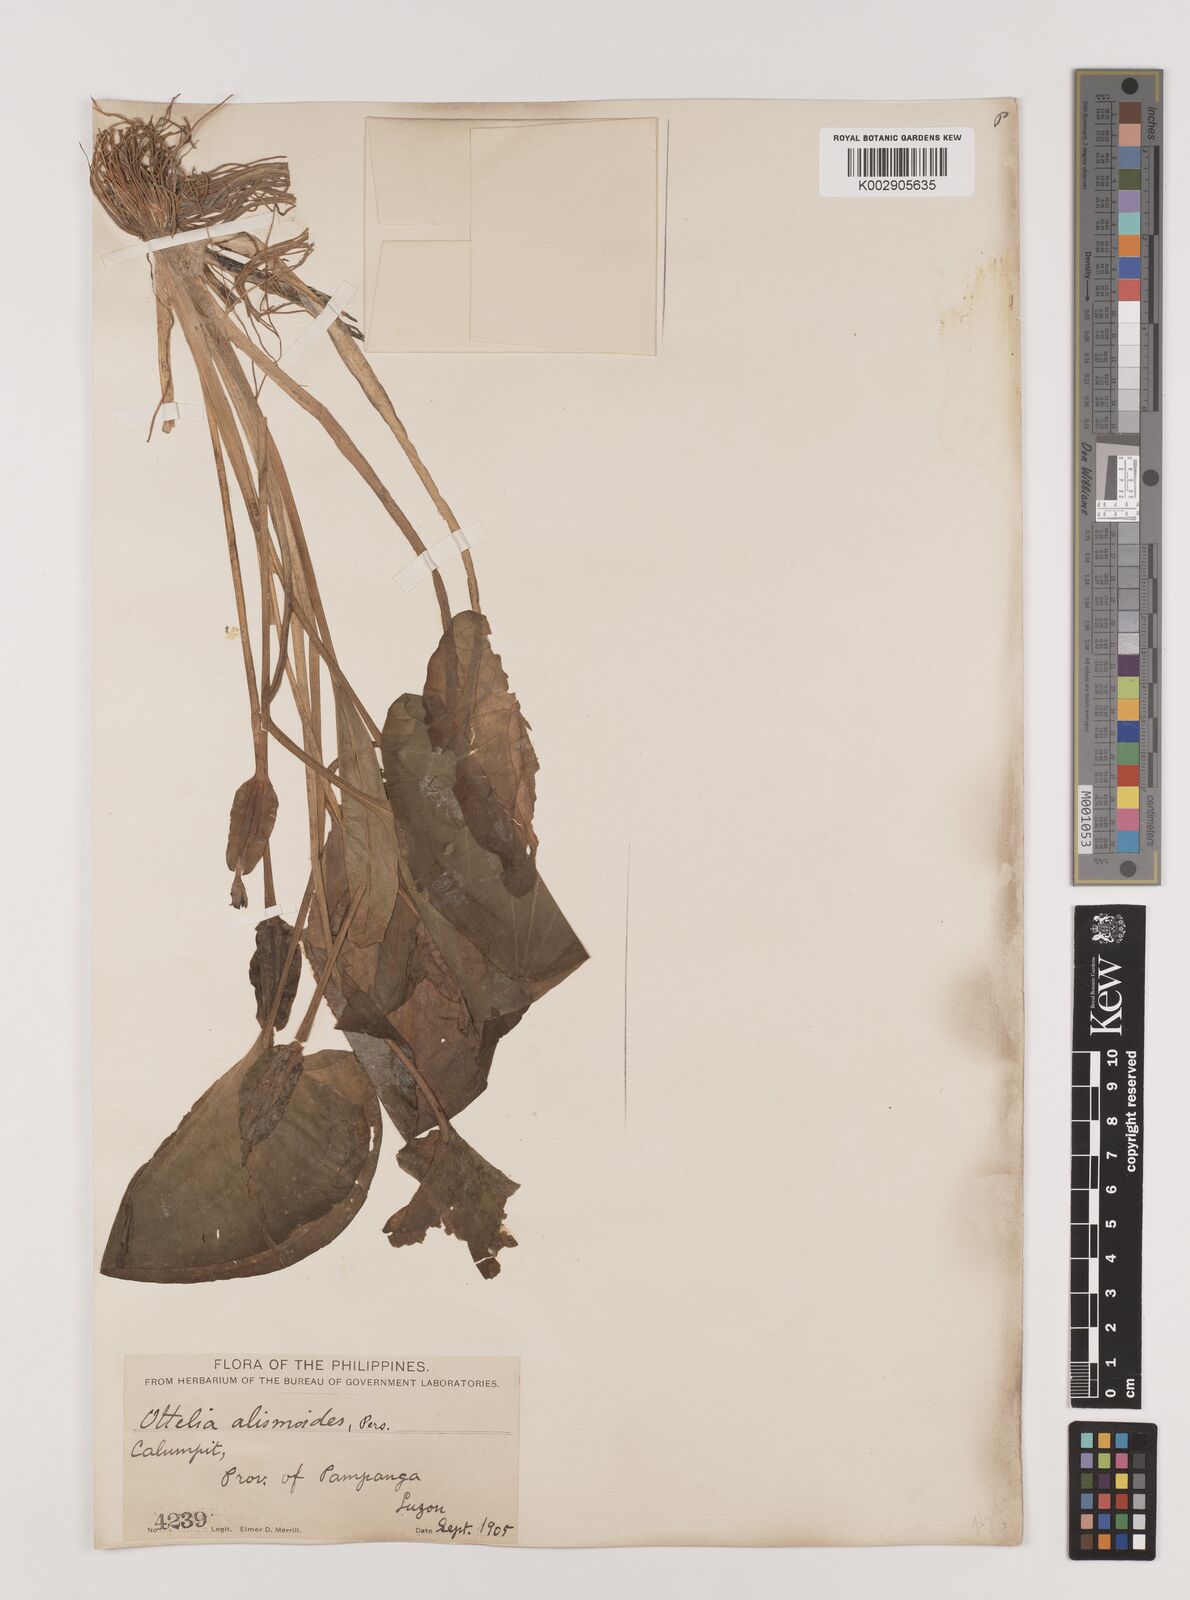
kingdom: Plantae
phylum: Tracheophyta
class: Liliopsida
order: Alismatales
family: Hydrocharitaceae
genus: Ottelia
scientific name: Ottelia alismoides
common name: Duck-lettuce
